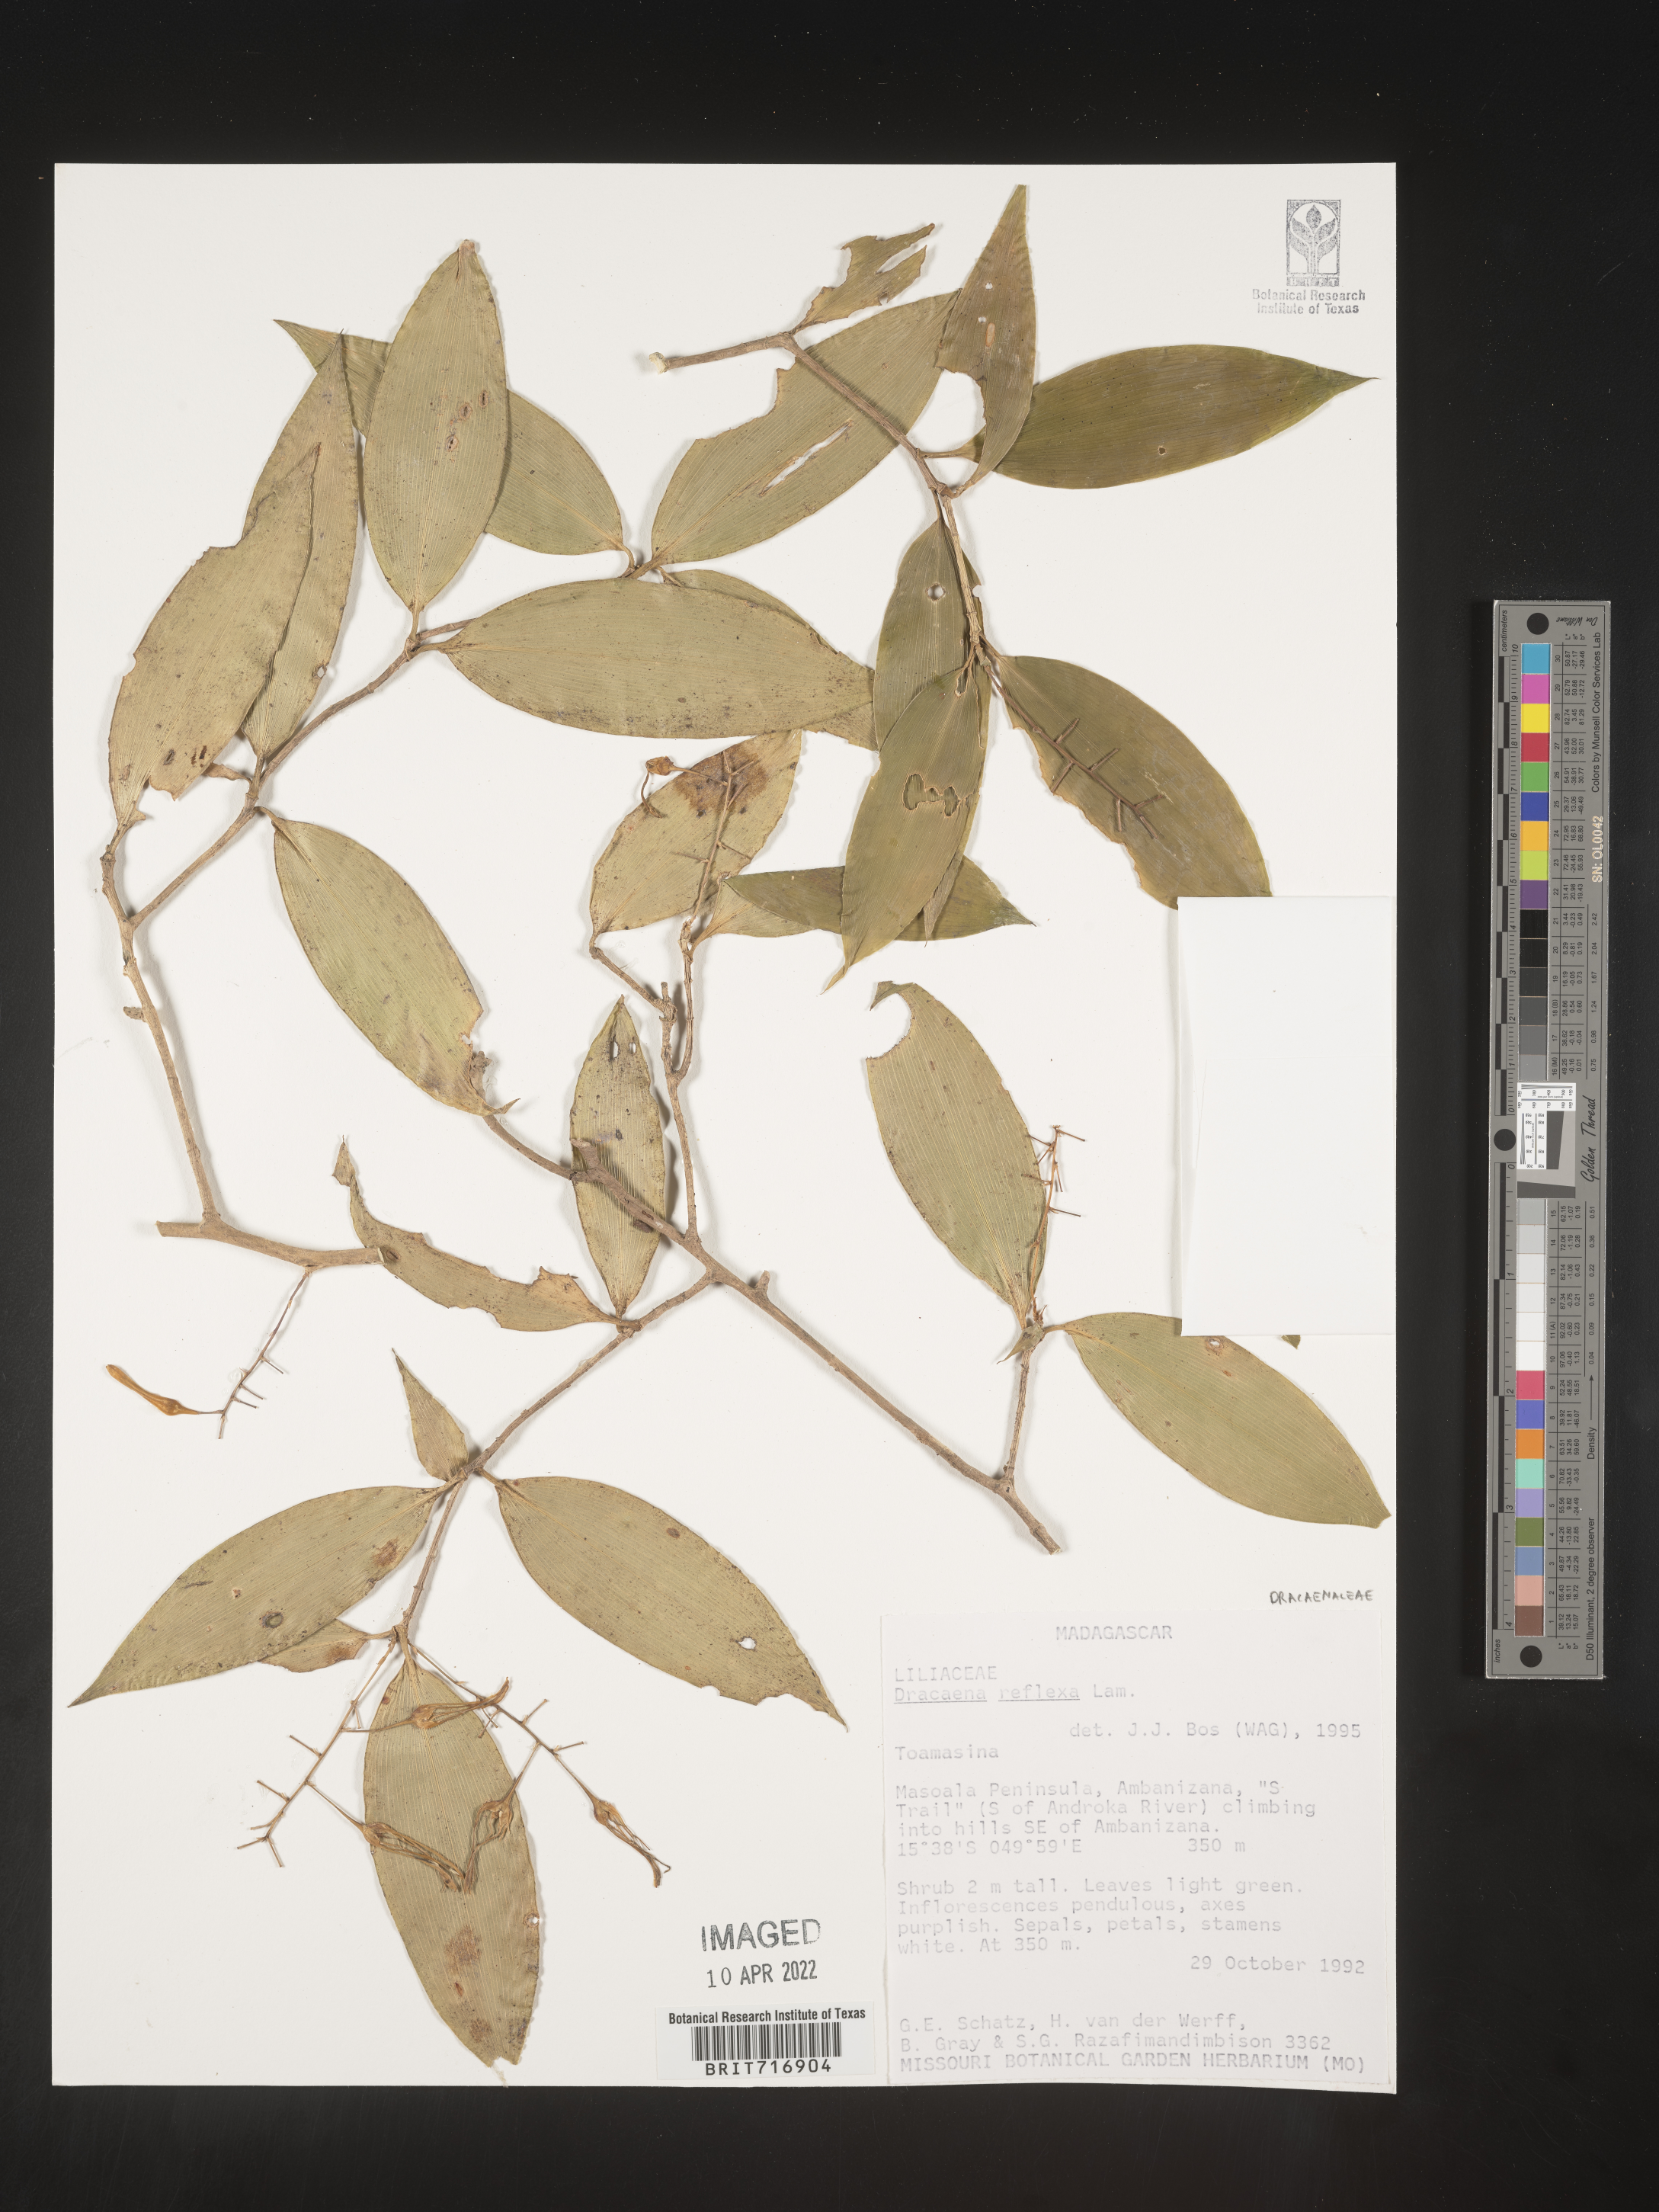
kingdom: Plantae
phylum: Tracheophyta
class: Liliopsida
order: Asparagales
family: Asparagaceae
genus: Dracaena
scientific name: Dracaena
